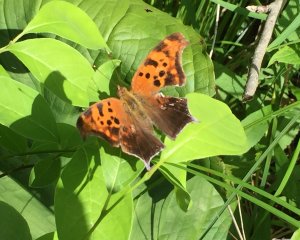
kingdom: Animalia
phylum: Arthropoda
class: Insecta
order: Lepidoptera
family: Nymphalidae
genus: Polygonia
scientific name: Polygonia interrogationis
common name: Question Mark
